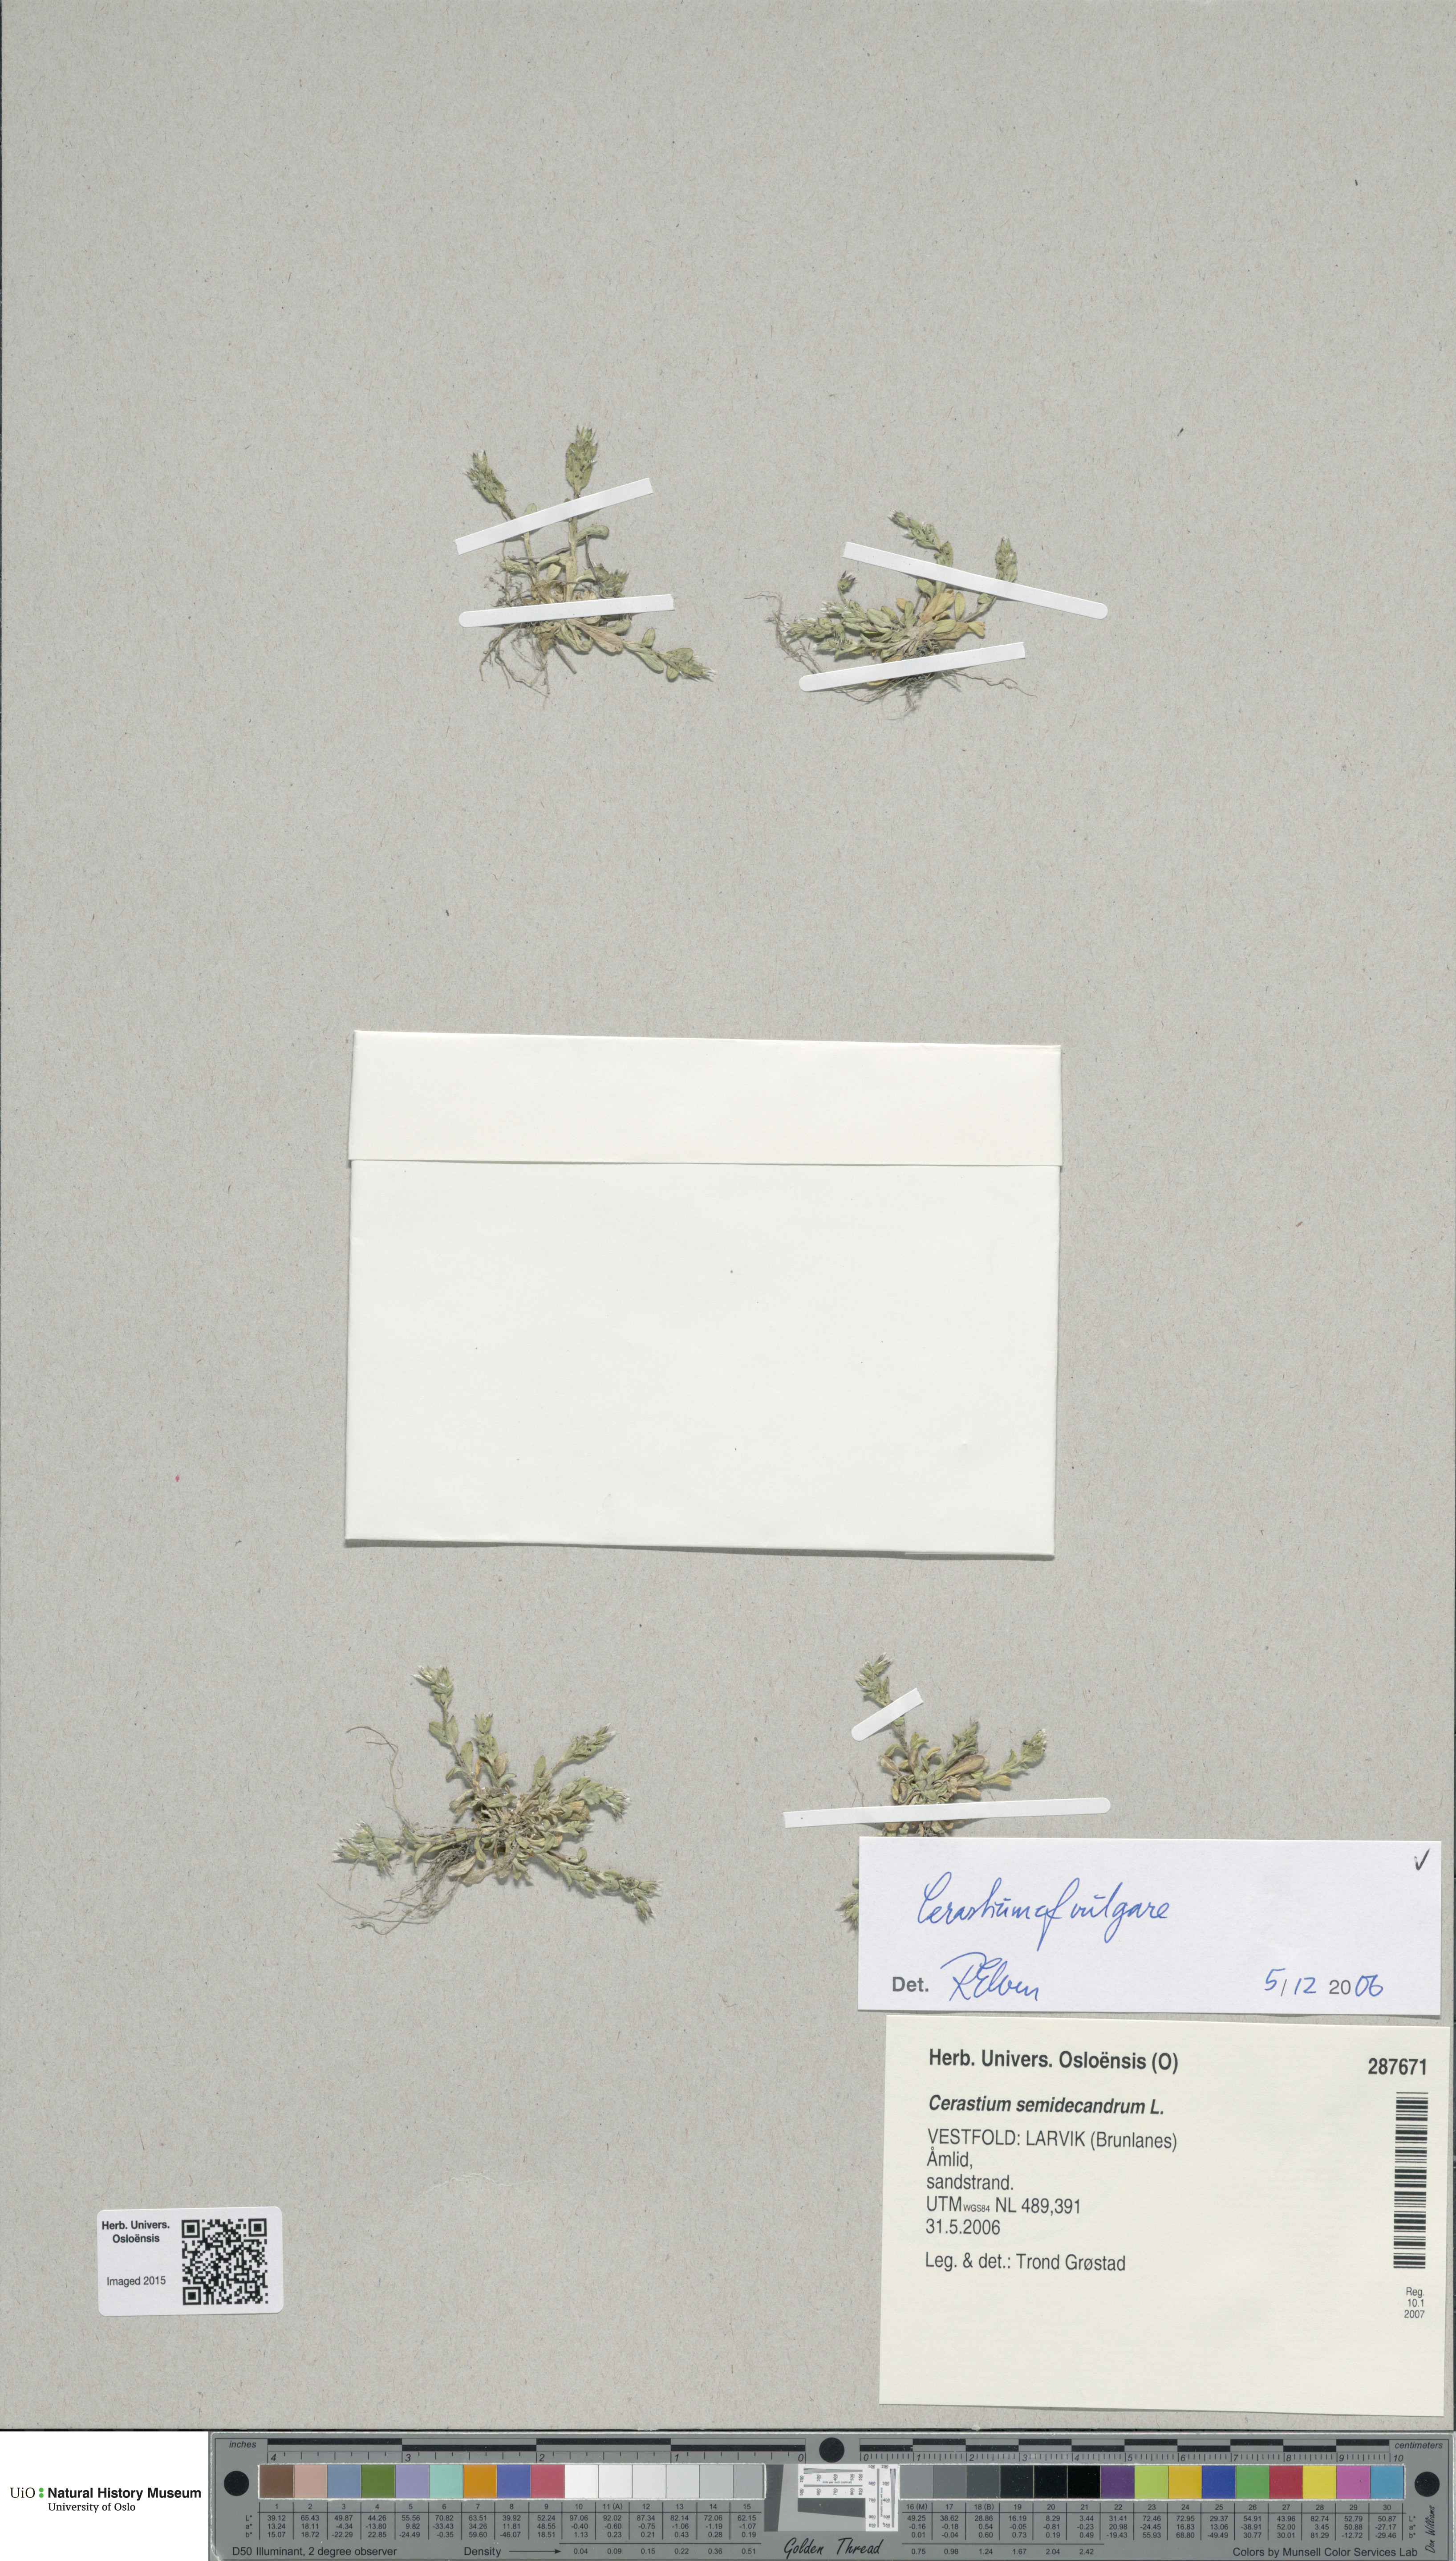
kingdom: Plantae
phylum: Tracheophyta
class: Magnoliopsida
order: Caryophyllales
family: Caryophyllaceae
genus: Cerastium
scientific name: Cerastium holosteoides
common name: Big chickweed
